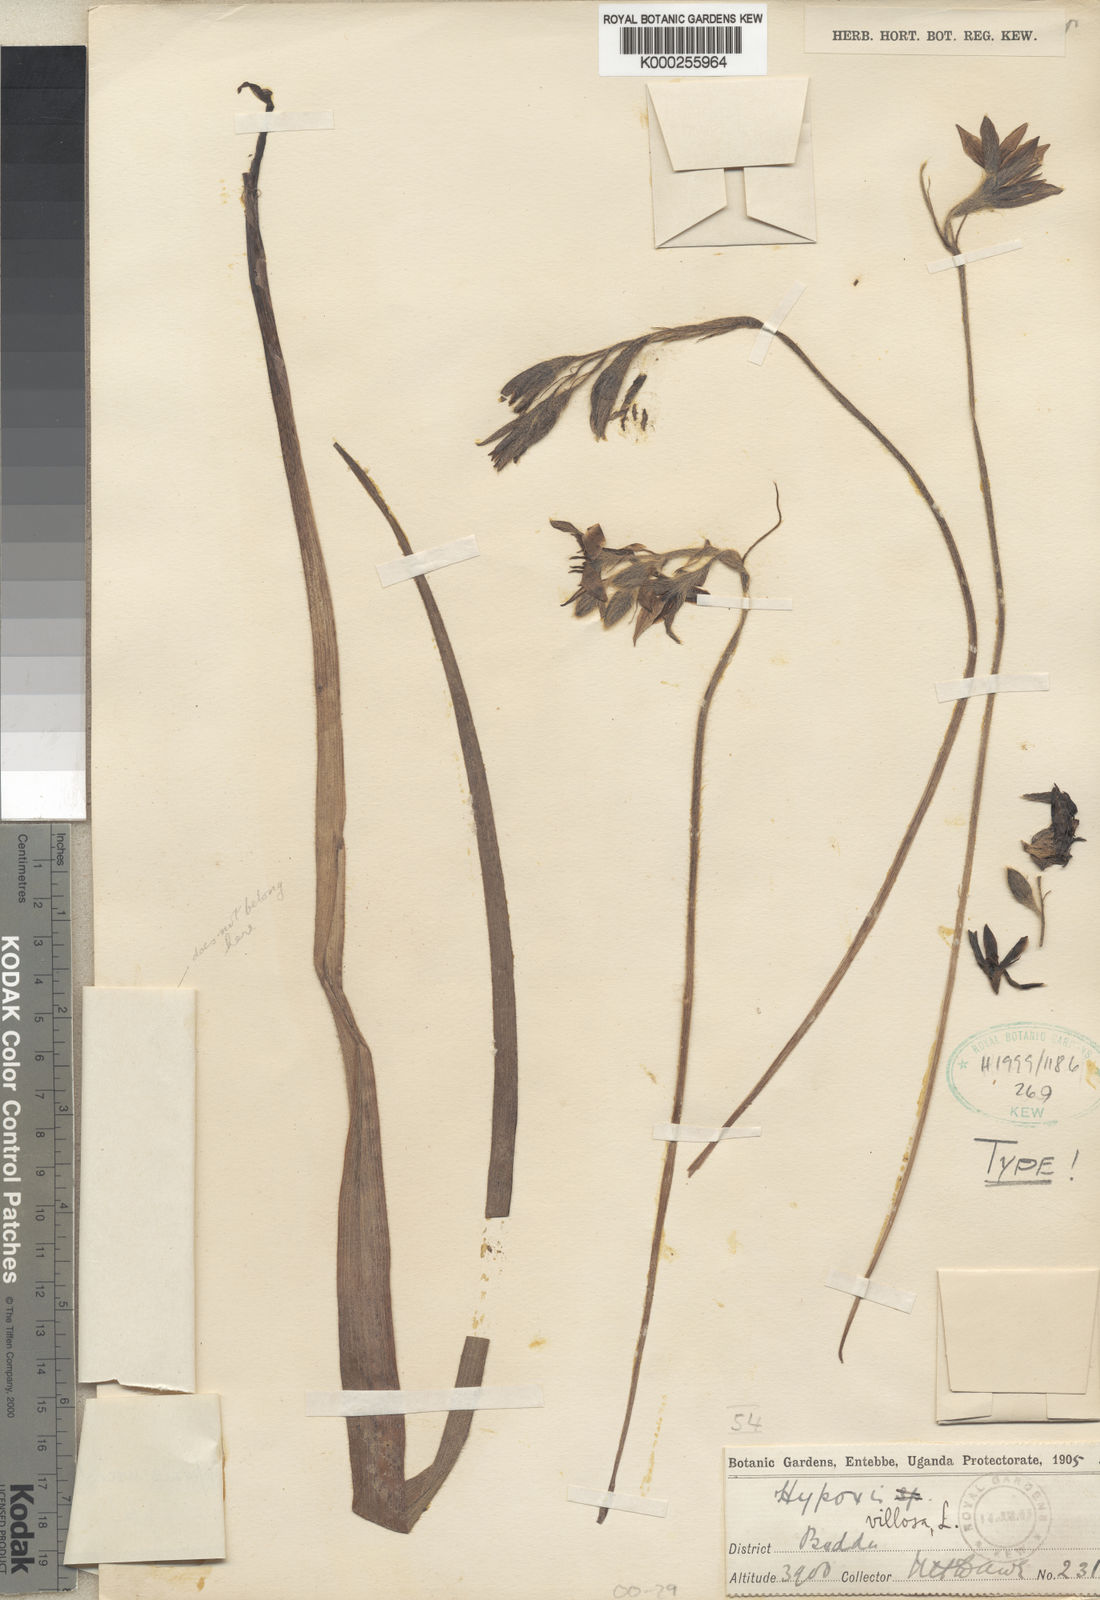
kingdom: Plantae
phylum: Tracheophyta
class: Liliopsida
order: Asparagales
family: Hypoxidaceae
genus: Hypoxis
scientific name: Hypoxis urceolata
